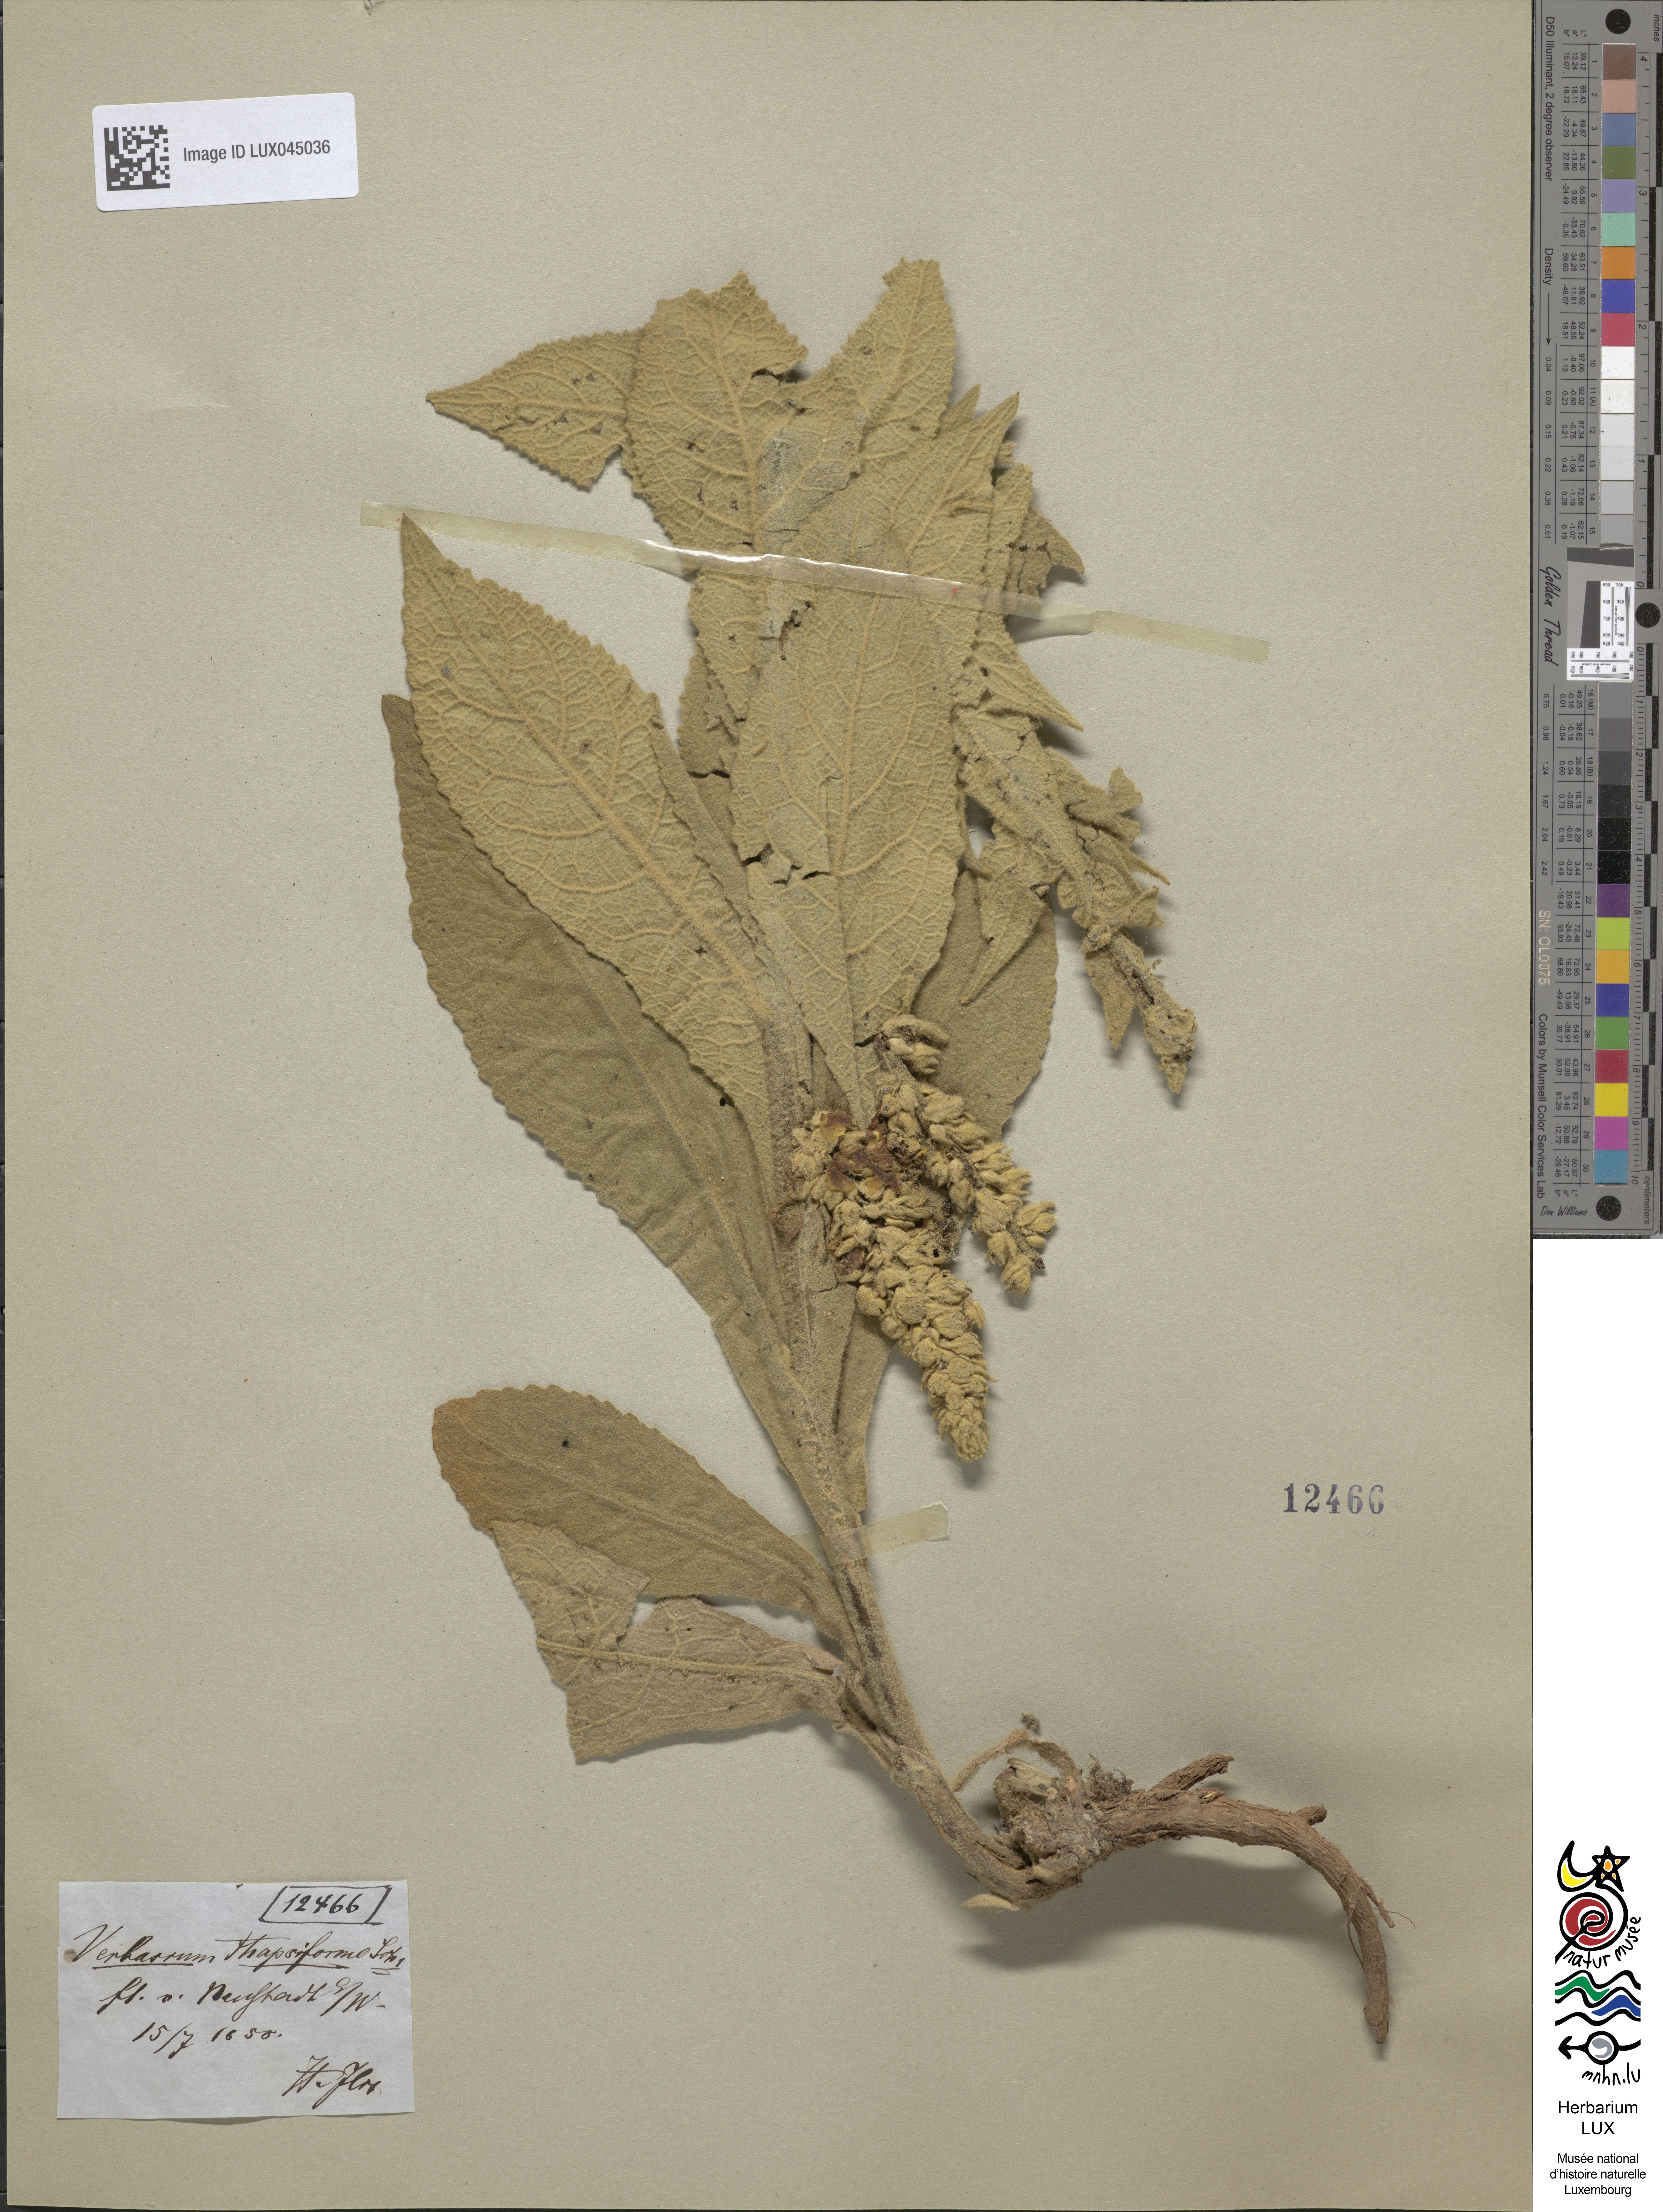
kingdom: Plantae
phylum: Tracheophyta
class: Magnoliopsida
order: Lamiales
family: Scrophulariaceae
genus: Verbascum
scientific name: Verbascum densiflorum
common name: Dense-flowered mullein
